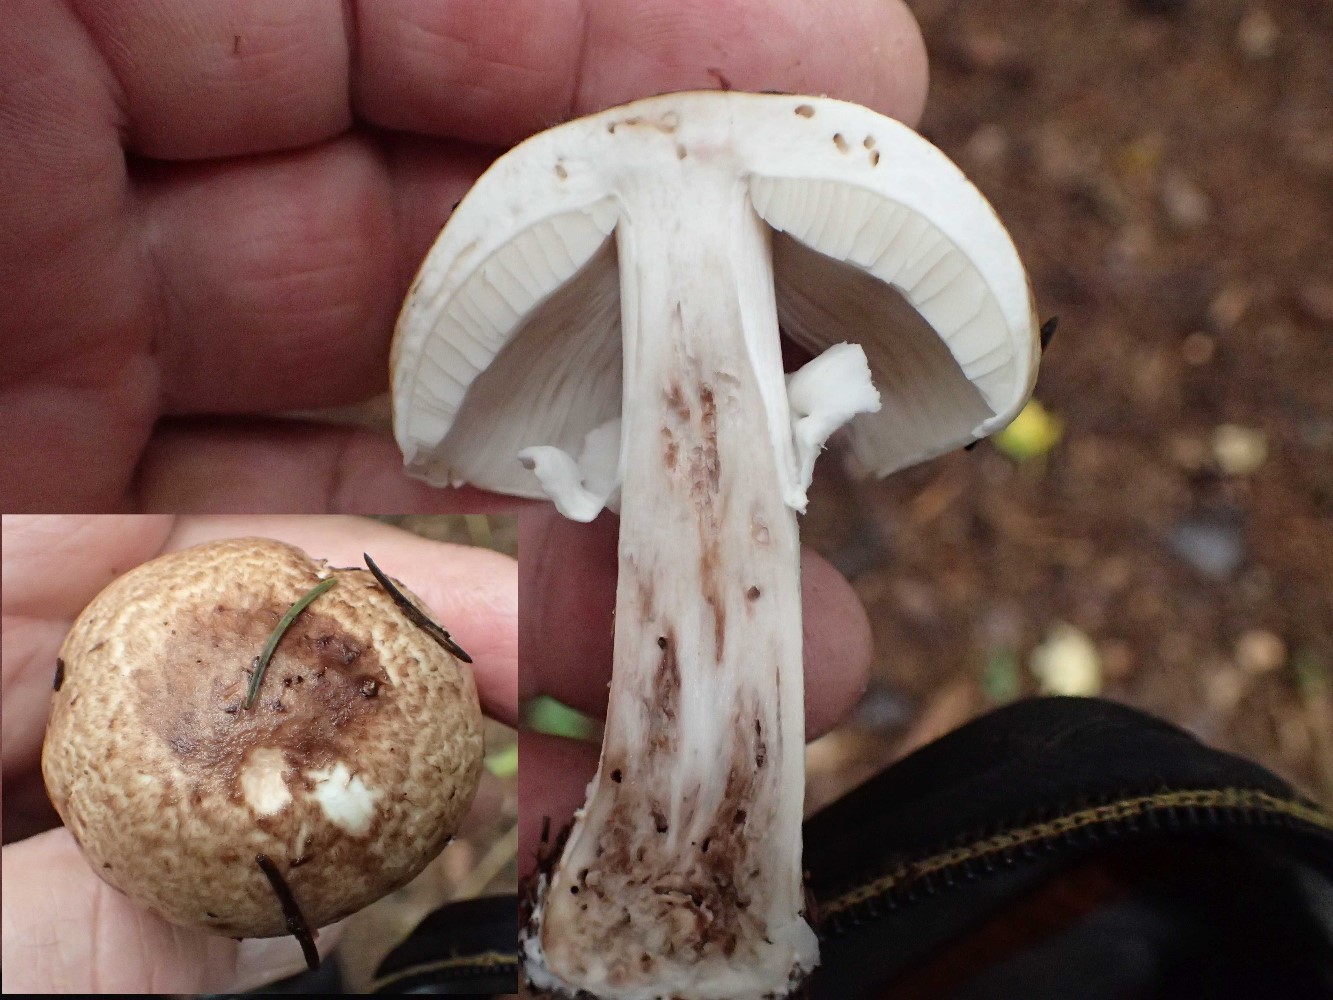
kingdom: Fungi
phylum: Basidiomycota
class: Agaricomycetes
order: Agaricales
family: Agaricaceae
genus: Agaricus
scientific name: Agaricus impudicus
